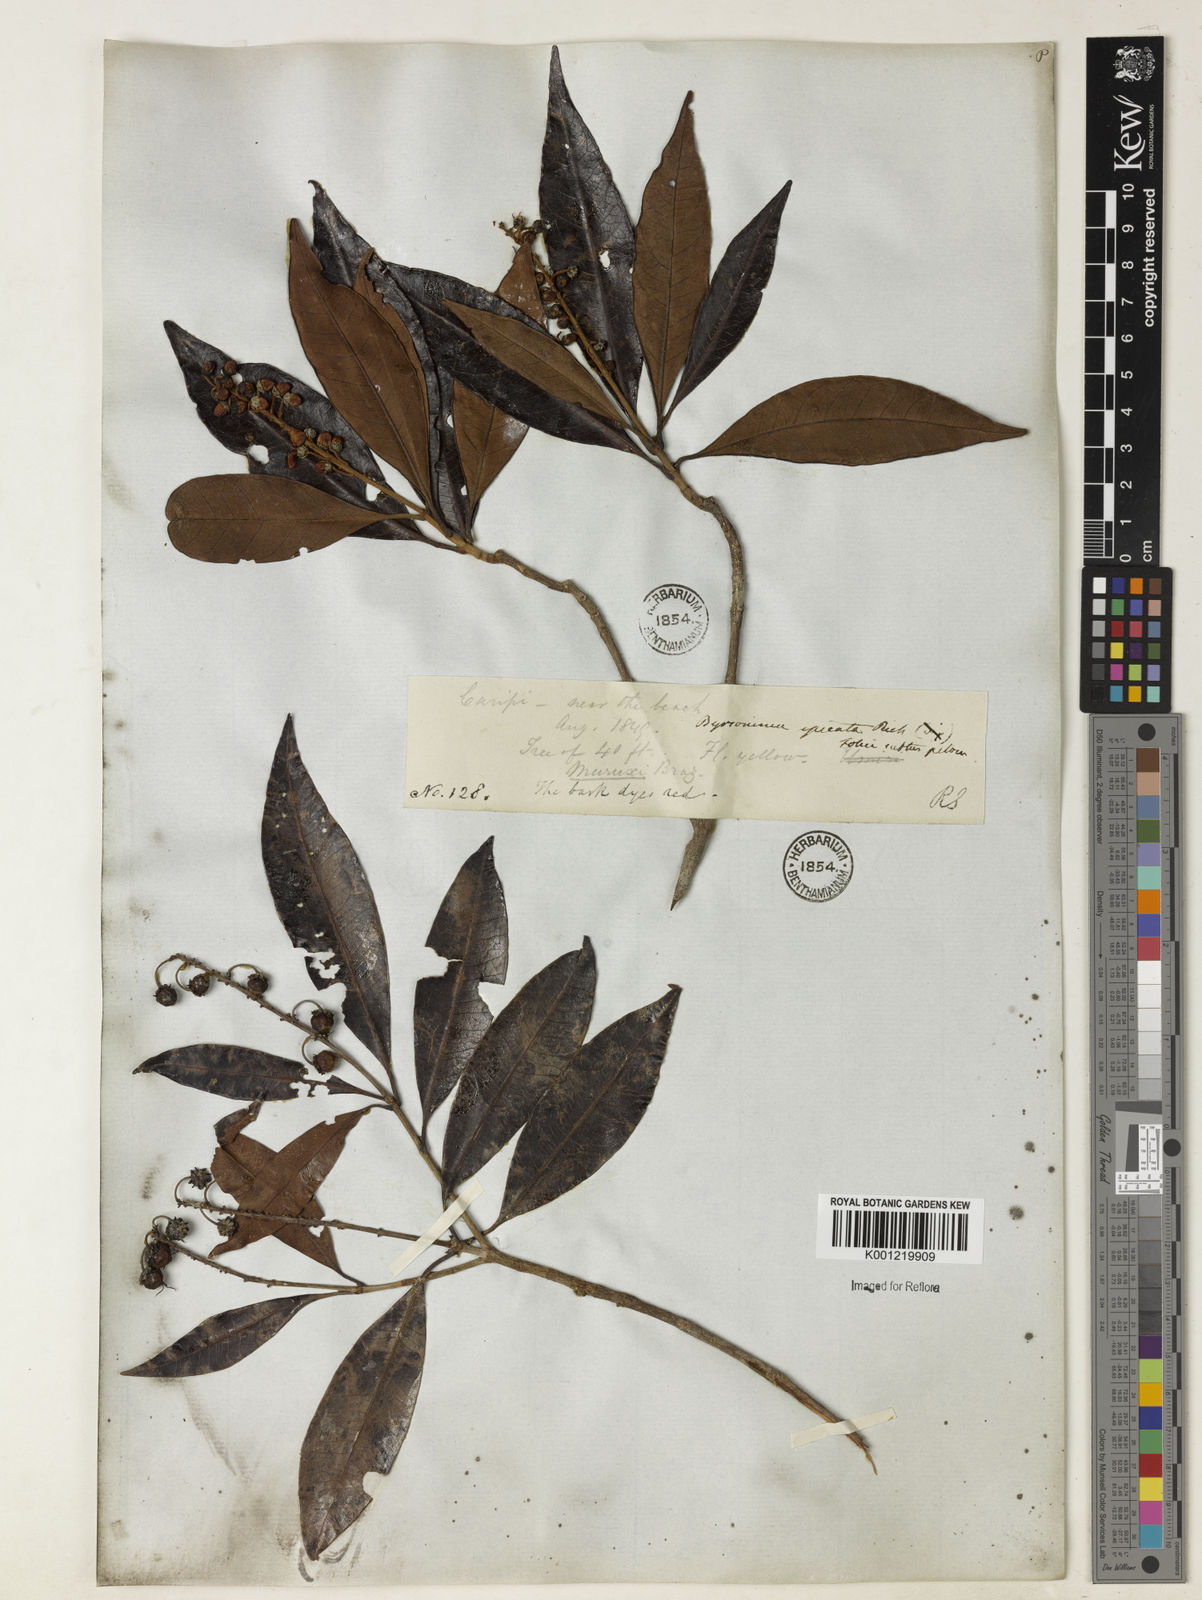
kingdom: Plantae
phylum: Tracheophyta
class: Magnoliopsida
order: Malpighiales
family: Malpighiaceae
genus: Byrsonima
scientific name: Byrsonima
